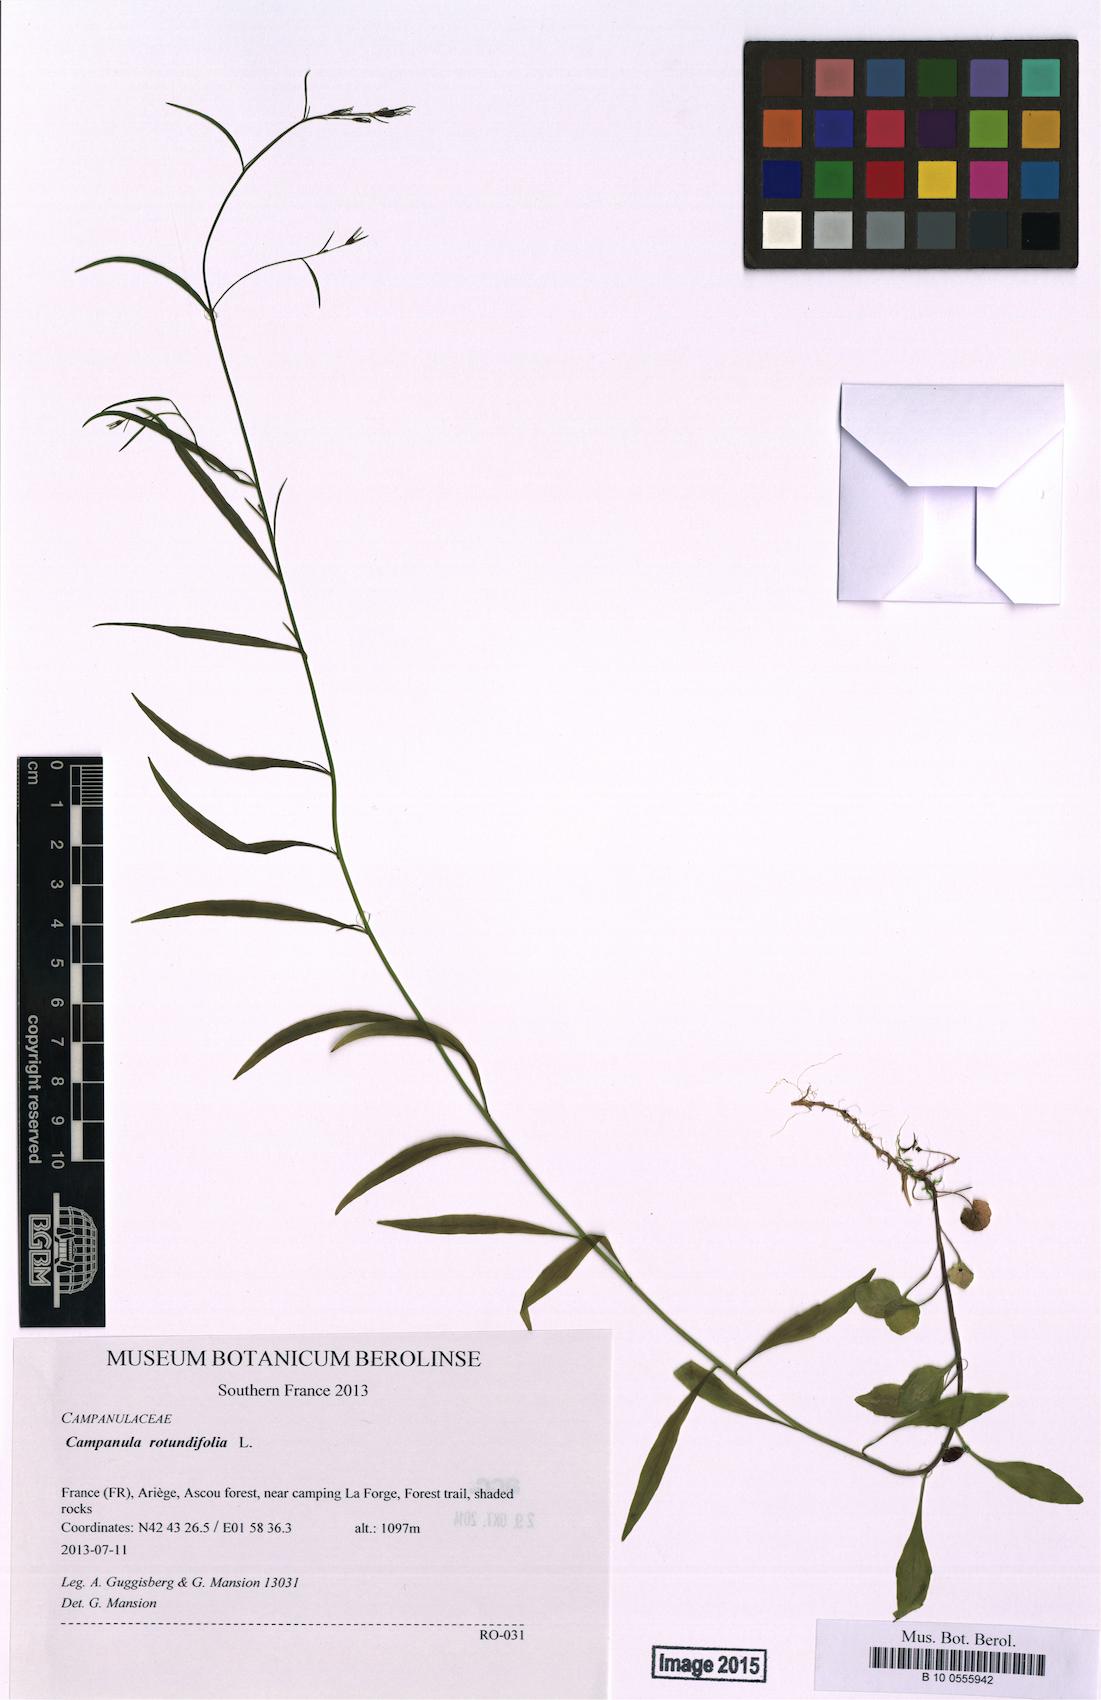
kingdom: Plantae
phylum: Tracheophyta
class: Magnoliopsida
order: Asterales
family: Campanulaceae
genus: Campanula
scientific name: Campanula rotundifolia
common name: Harebell
